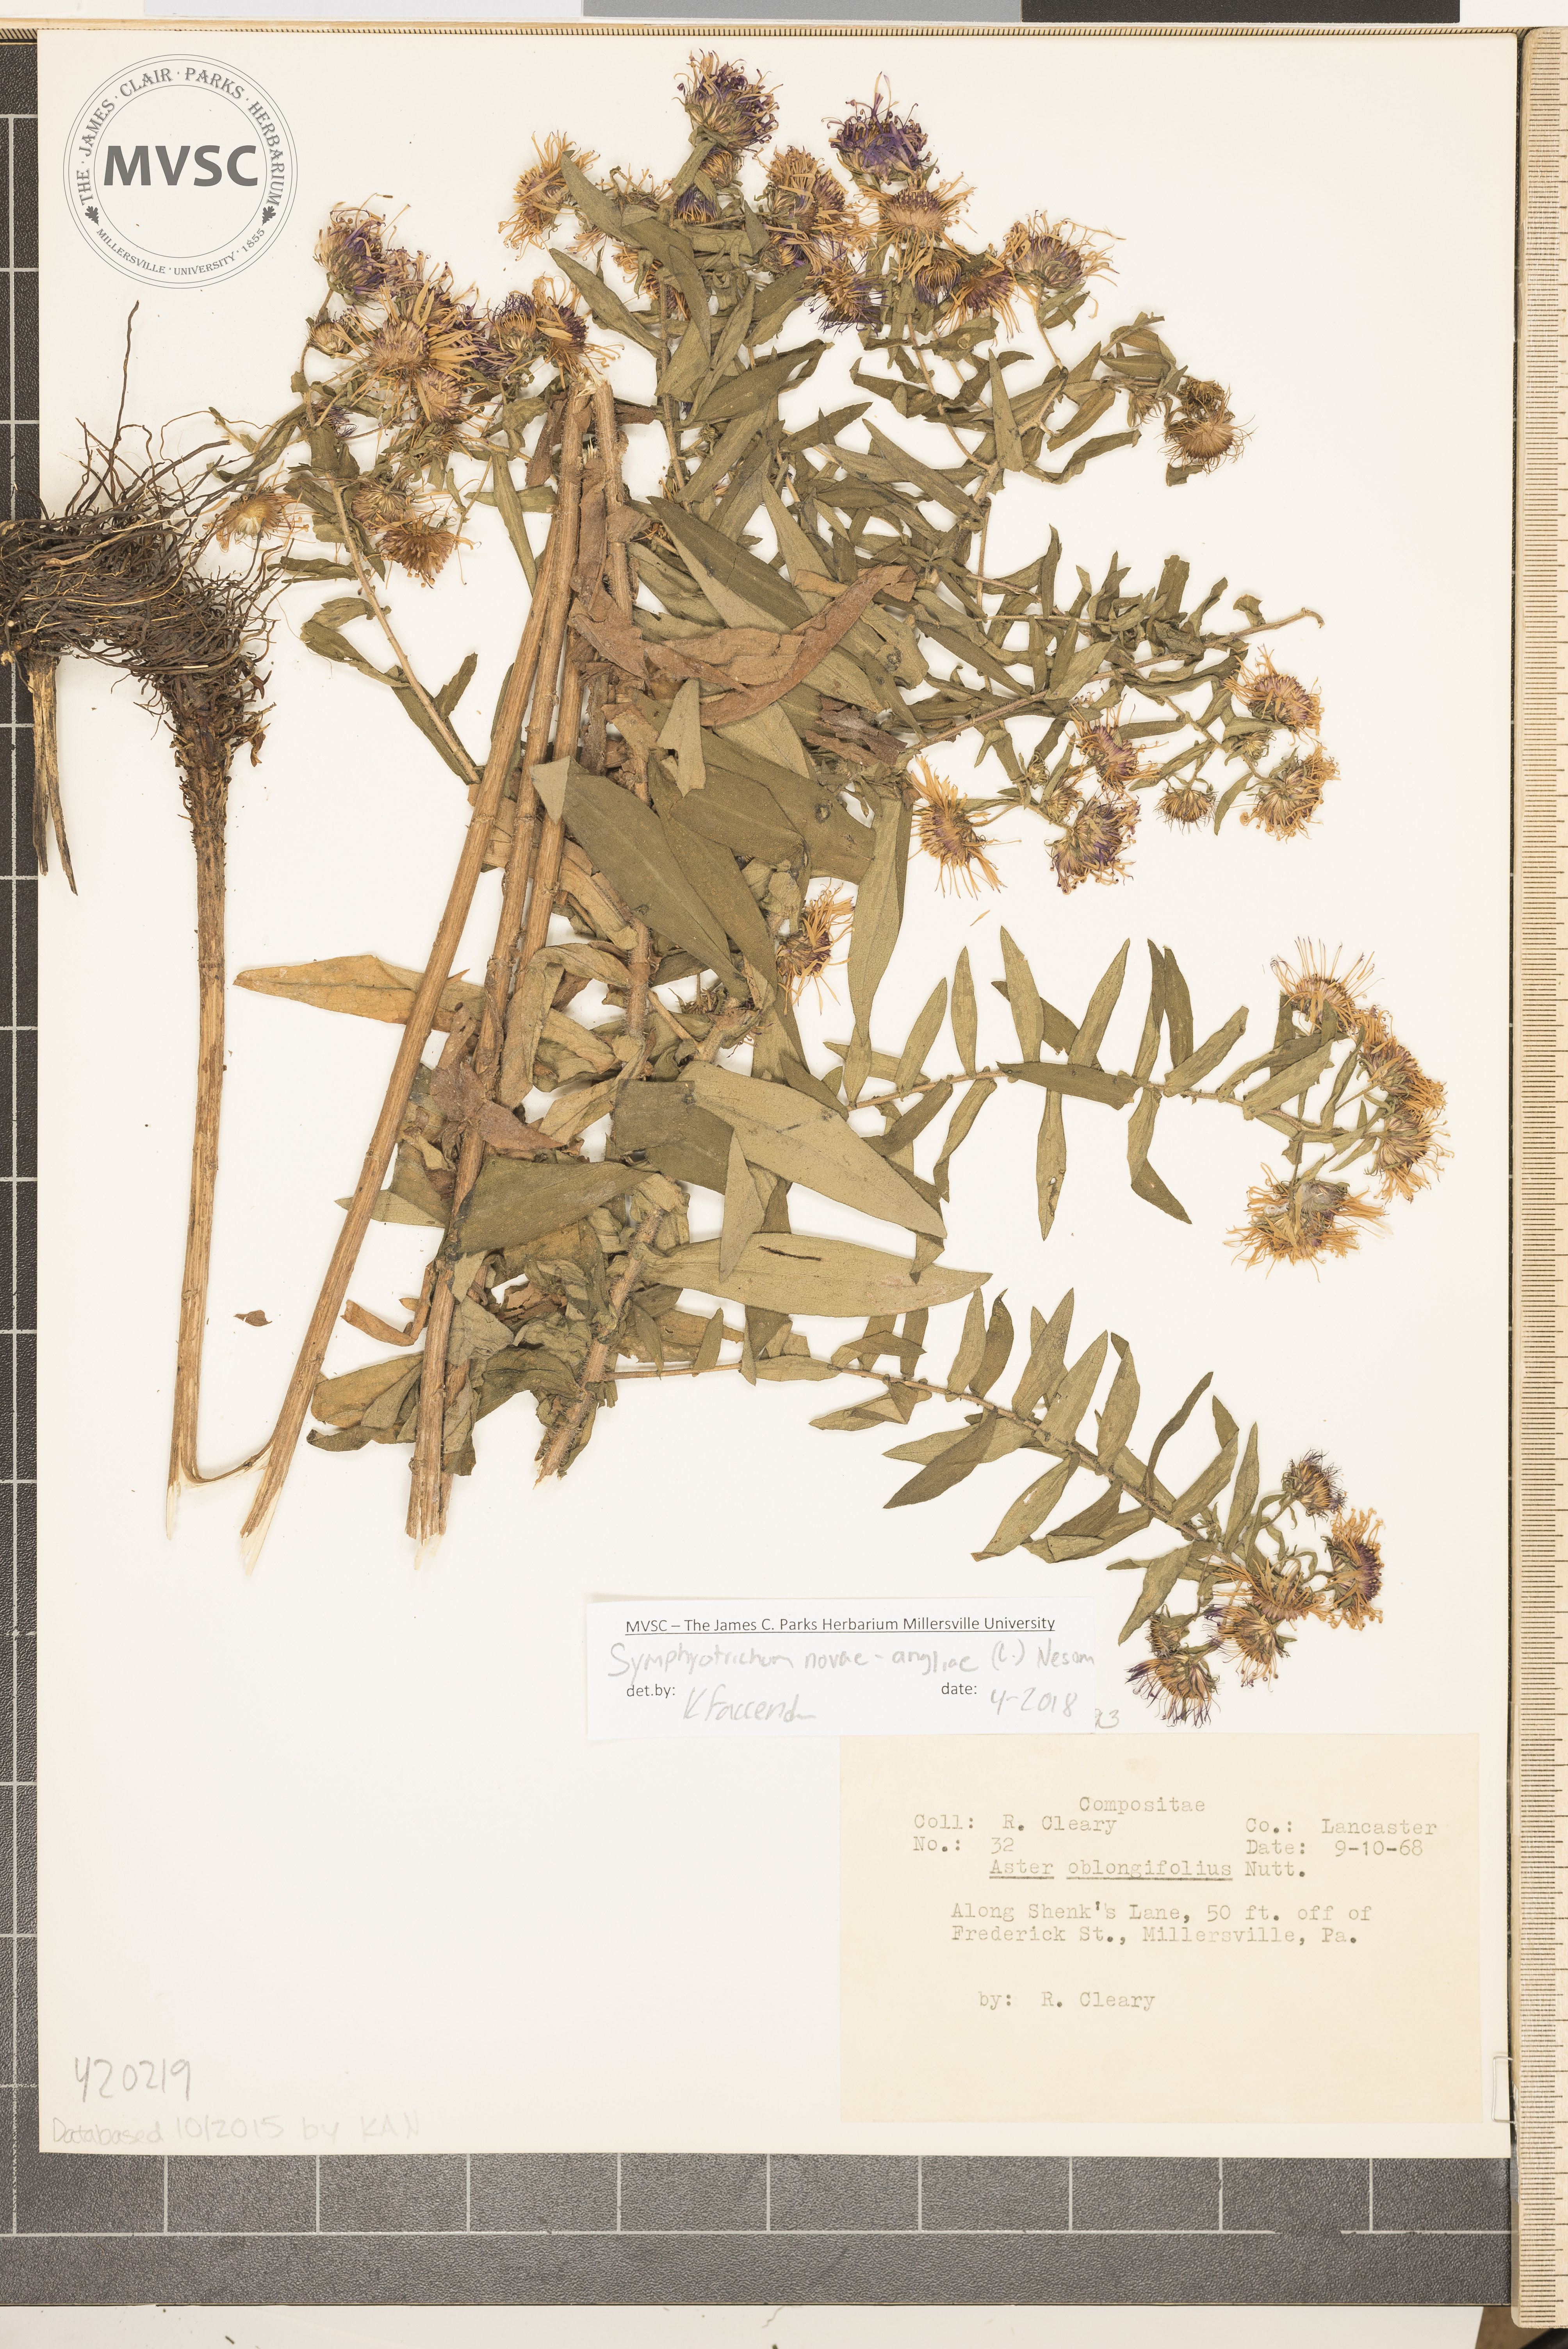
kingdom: Plantae
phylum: Tracheophyta
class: Magnoliopsida
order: Asterales
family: Asteraceae
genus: Symphyotrichum
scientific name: Symphyotrichum novae-angliae
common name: Michaelmas daisy
